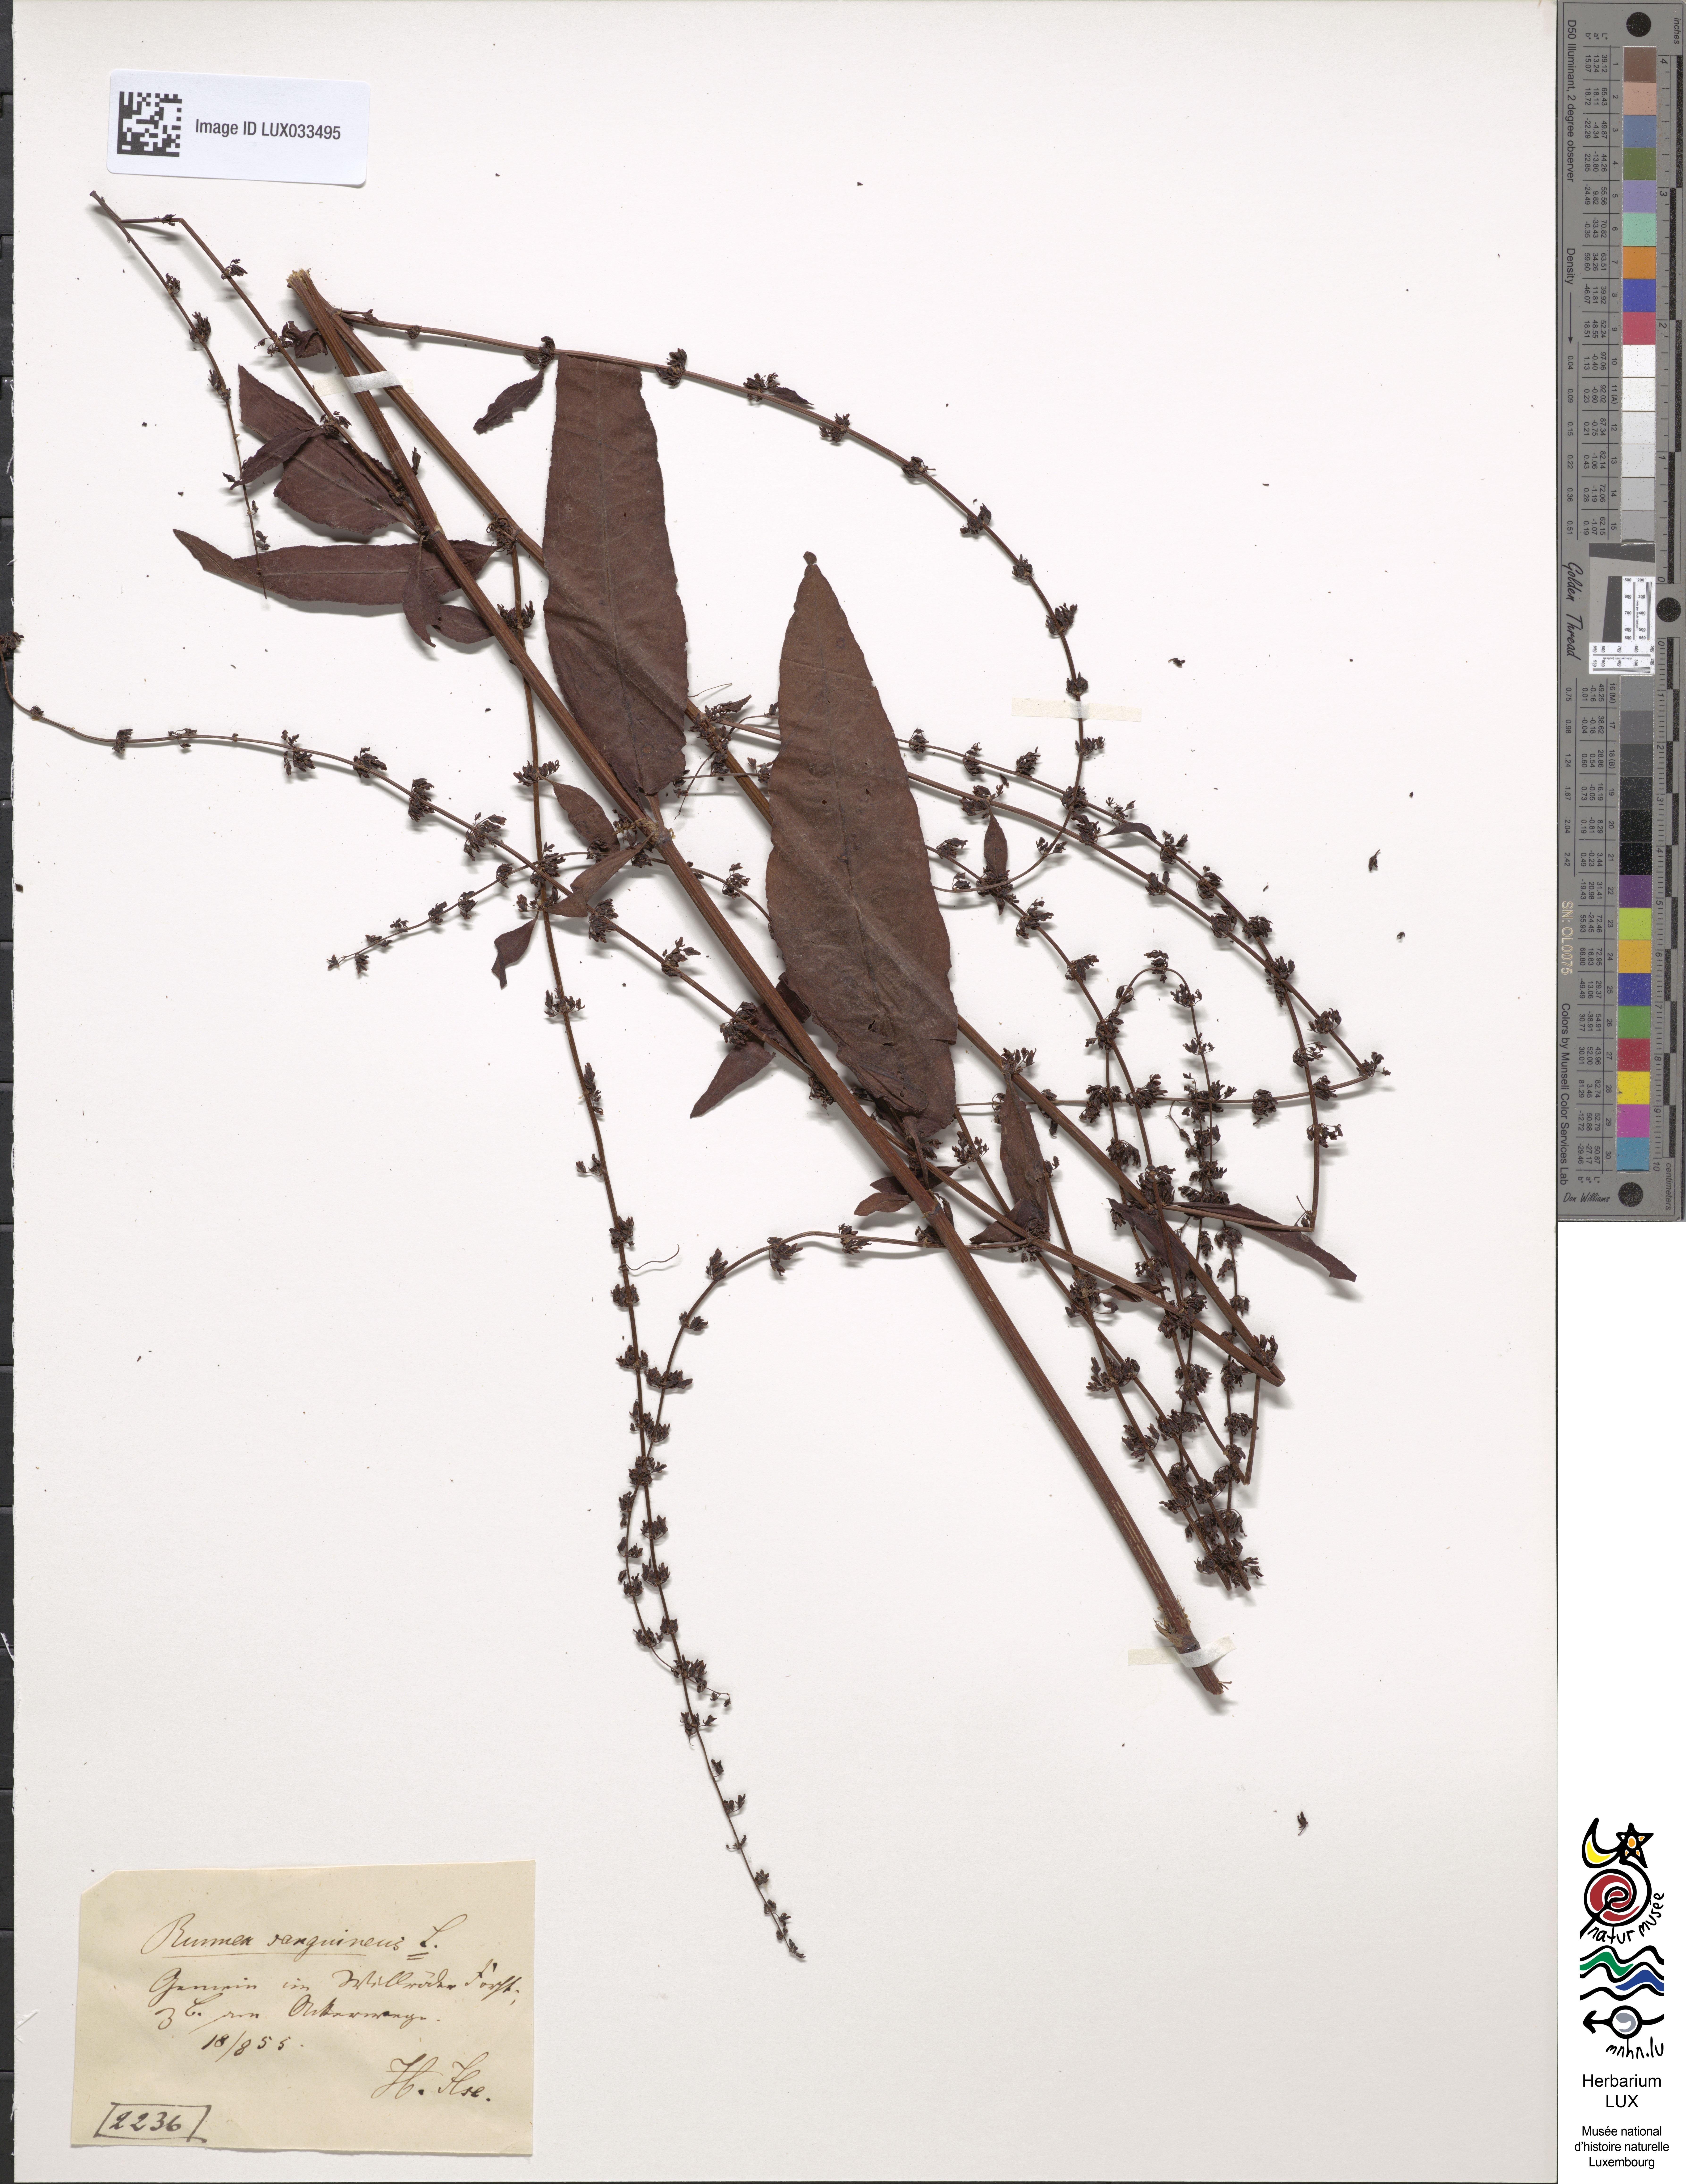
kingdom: Plantae
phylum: Tracheophyta
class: Magnoliopsida
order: Caryophyllales
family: Polygonaceae
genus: Rumex
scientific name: Rumex sanguineus
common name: Wood dock
